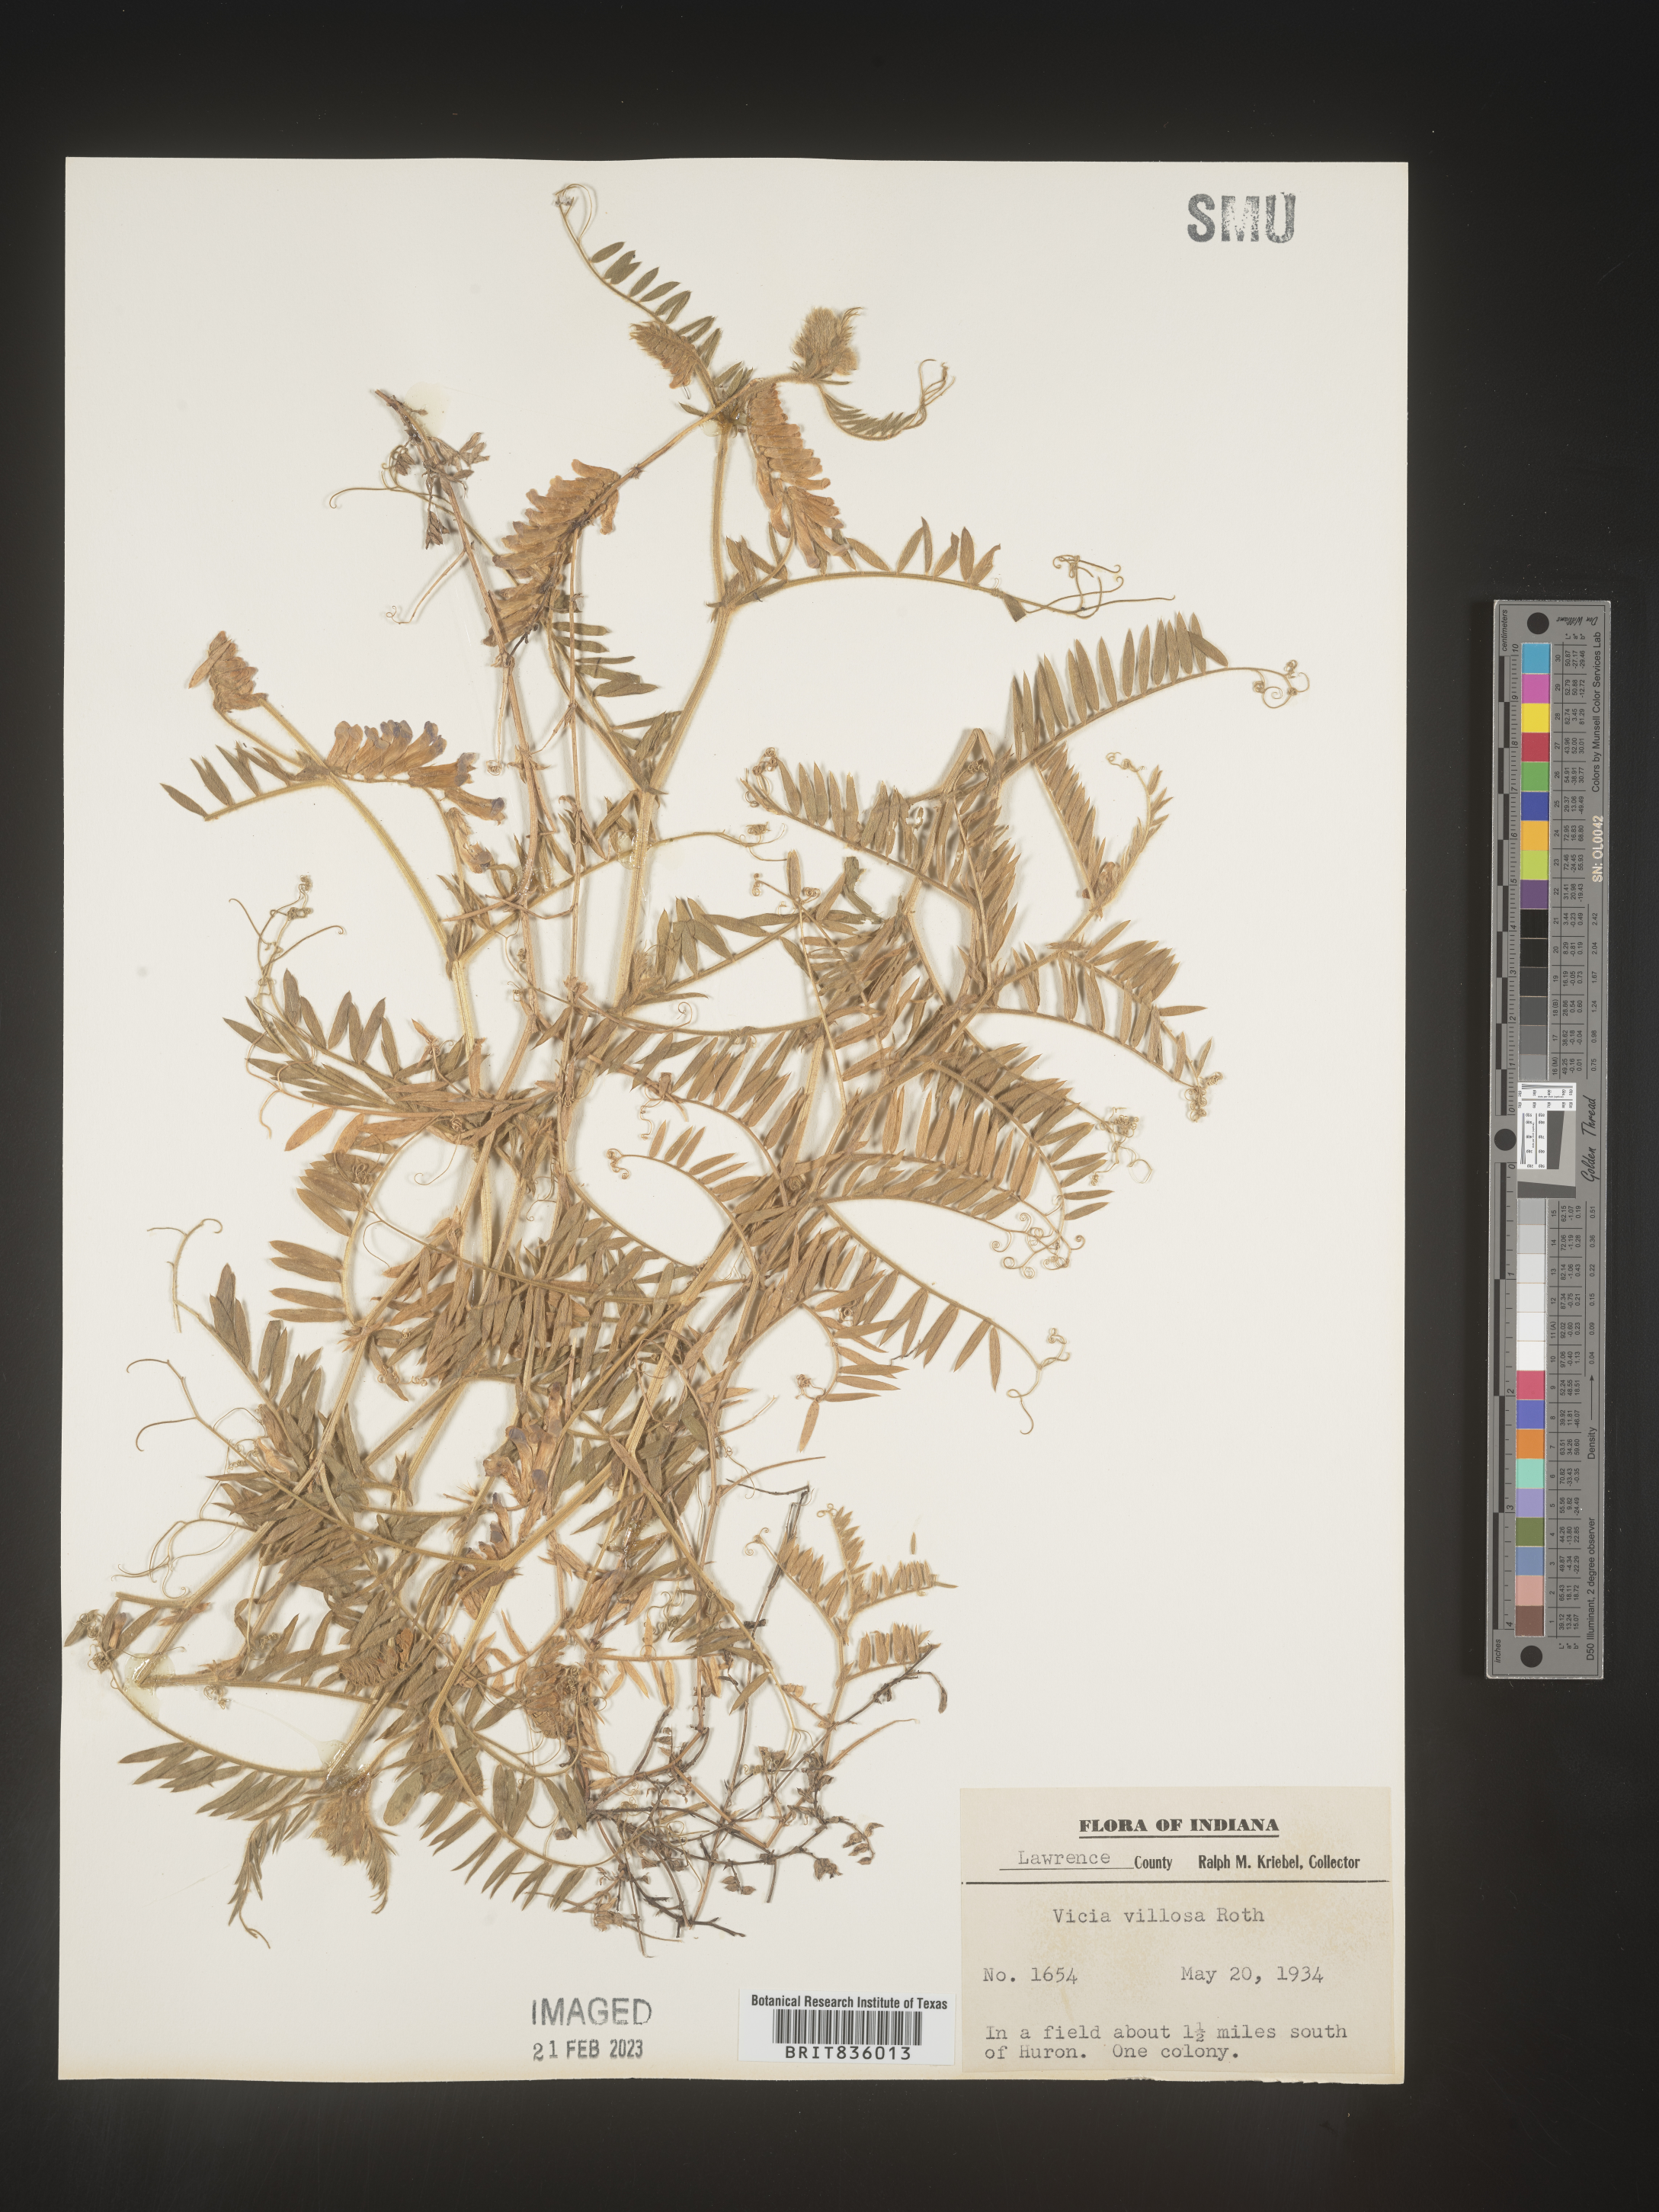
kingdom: Plantae
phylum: Tracheophyta
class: Magnoliopsida
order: Fabales
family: Fabaceae
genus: Vicia
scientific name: Vicia villosa
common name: Fodder vetch
